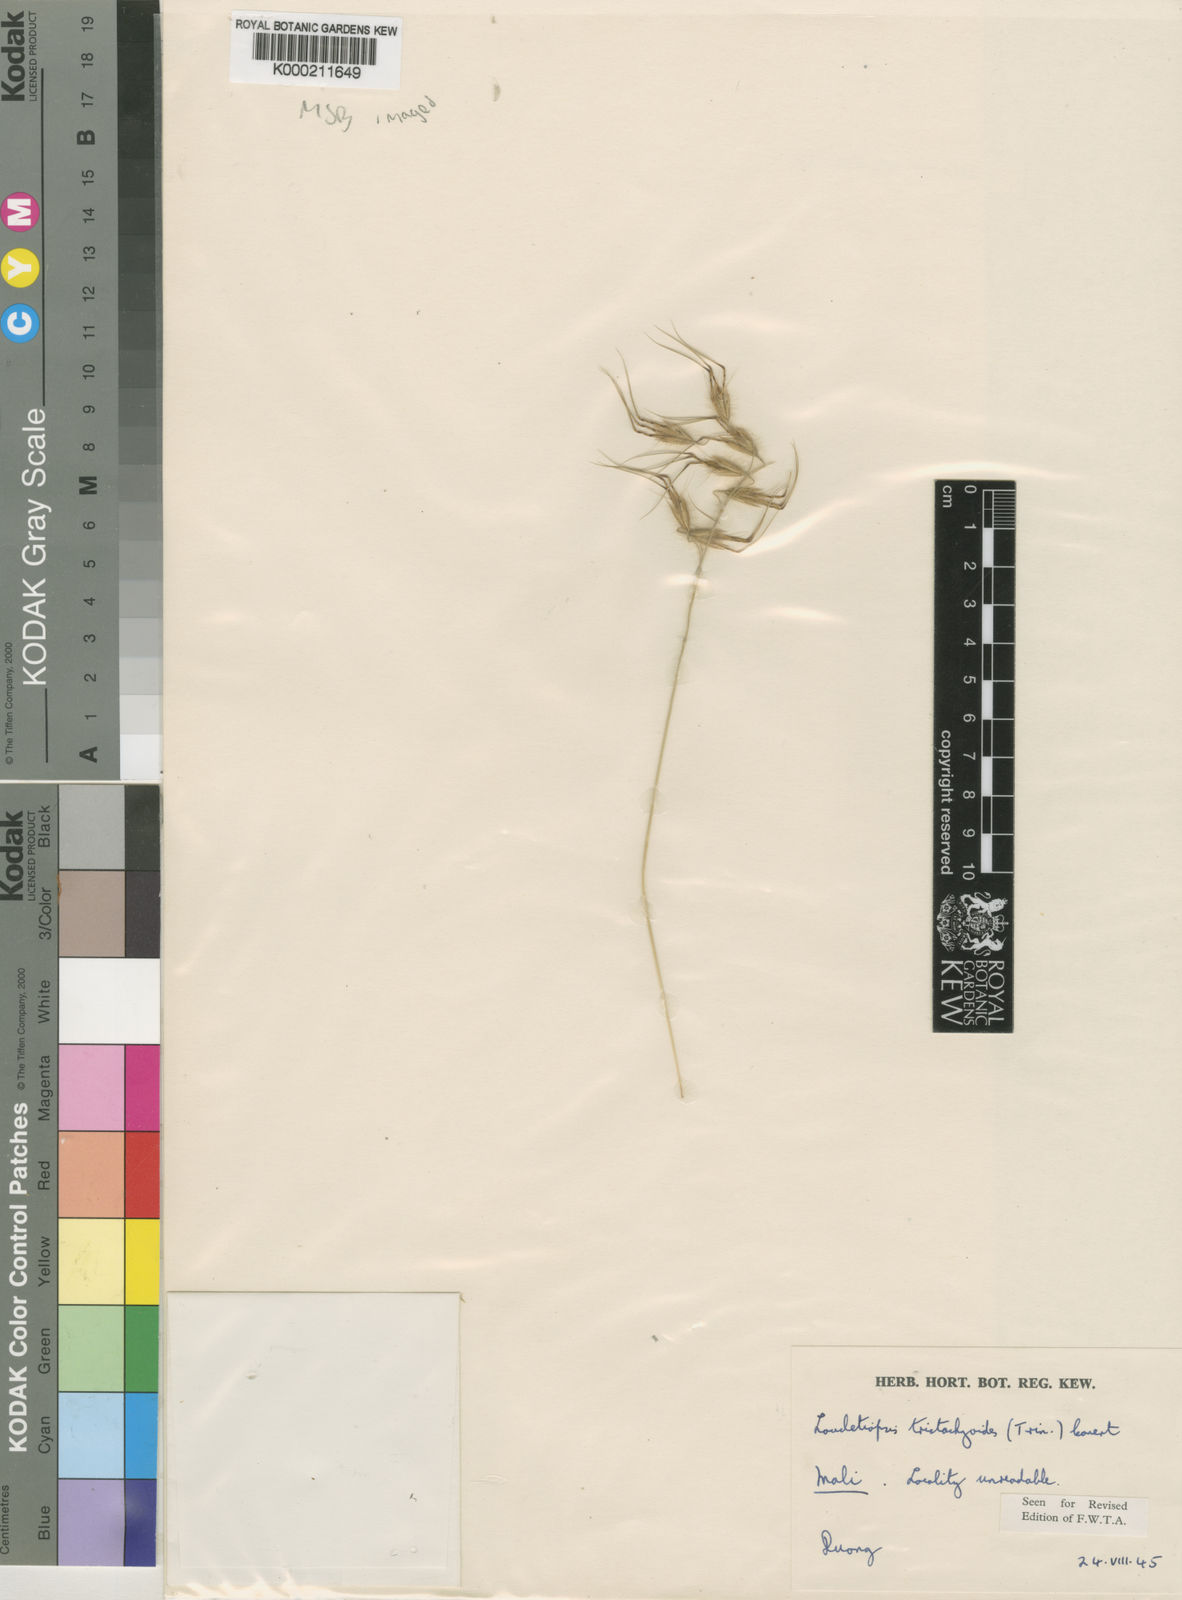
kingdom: Plantae
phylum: Tracheophyta
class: Liliopsida
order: Poales
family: Poaceae
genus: Dilophotriche
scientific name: Dilophotriche
